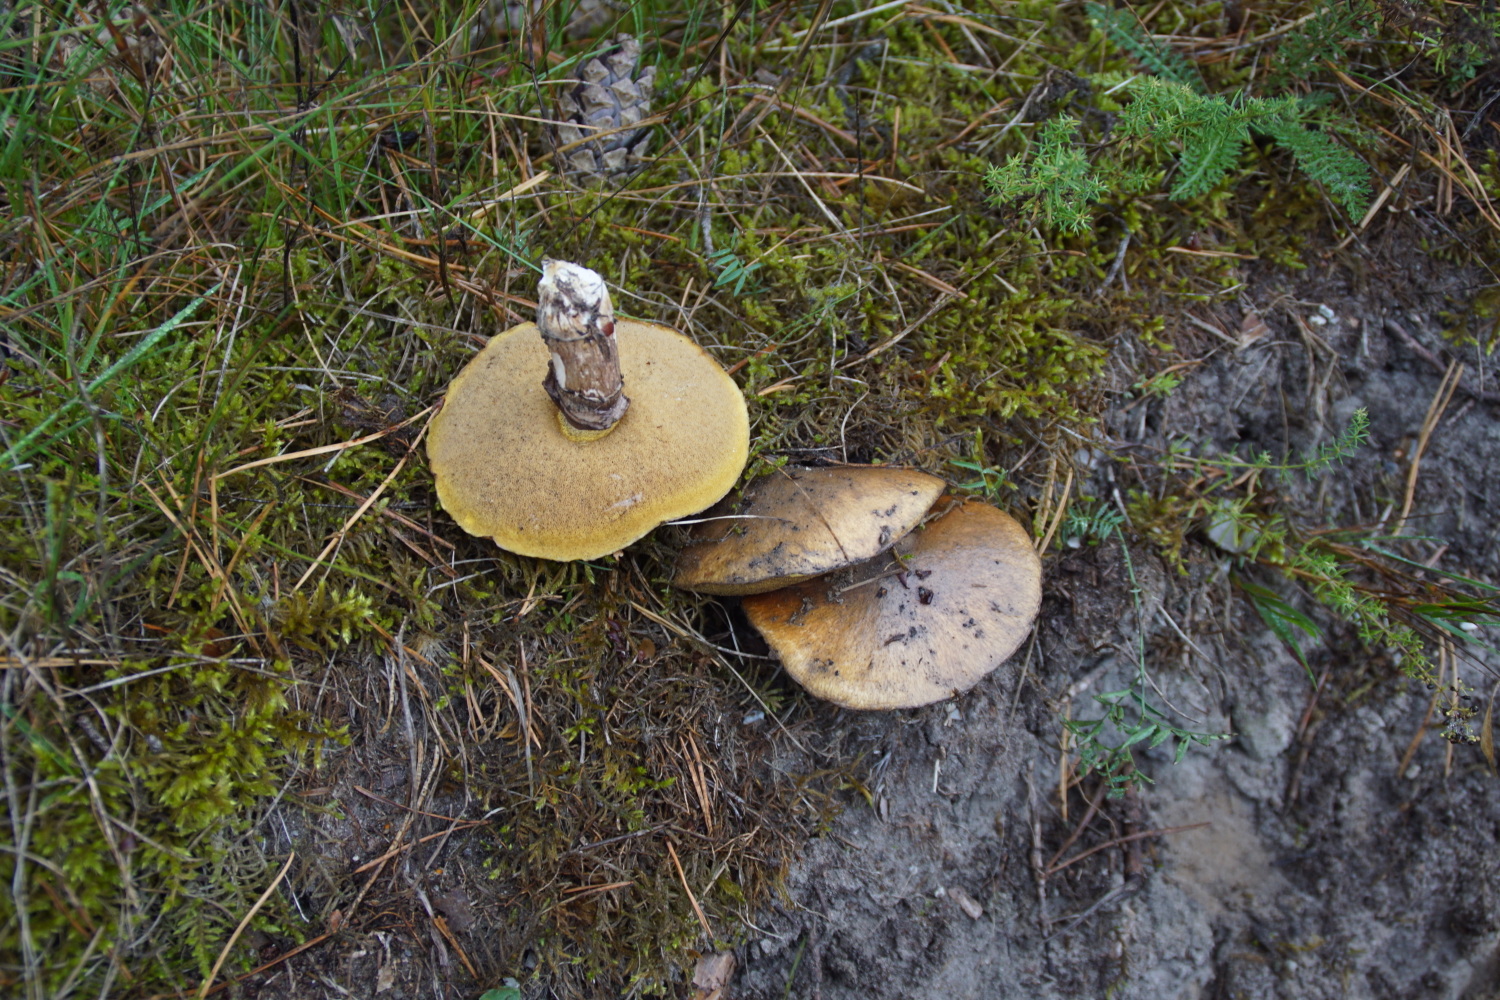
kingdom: Fungi
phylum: Basidiomycota
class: Agaricomycetes
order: Boletales
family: Suillaceae
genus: Suillus
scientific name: Suillus luteus
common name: brungul slimrørhat
